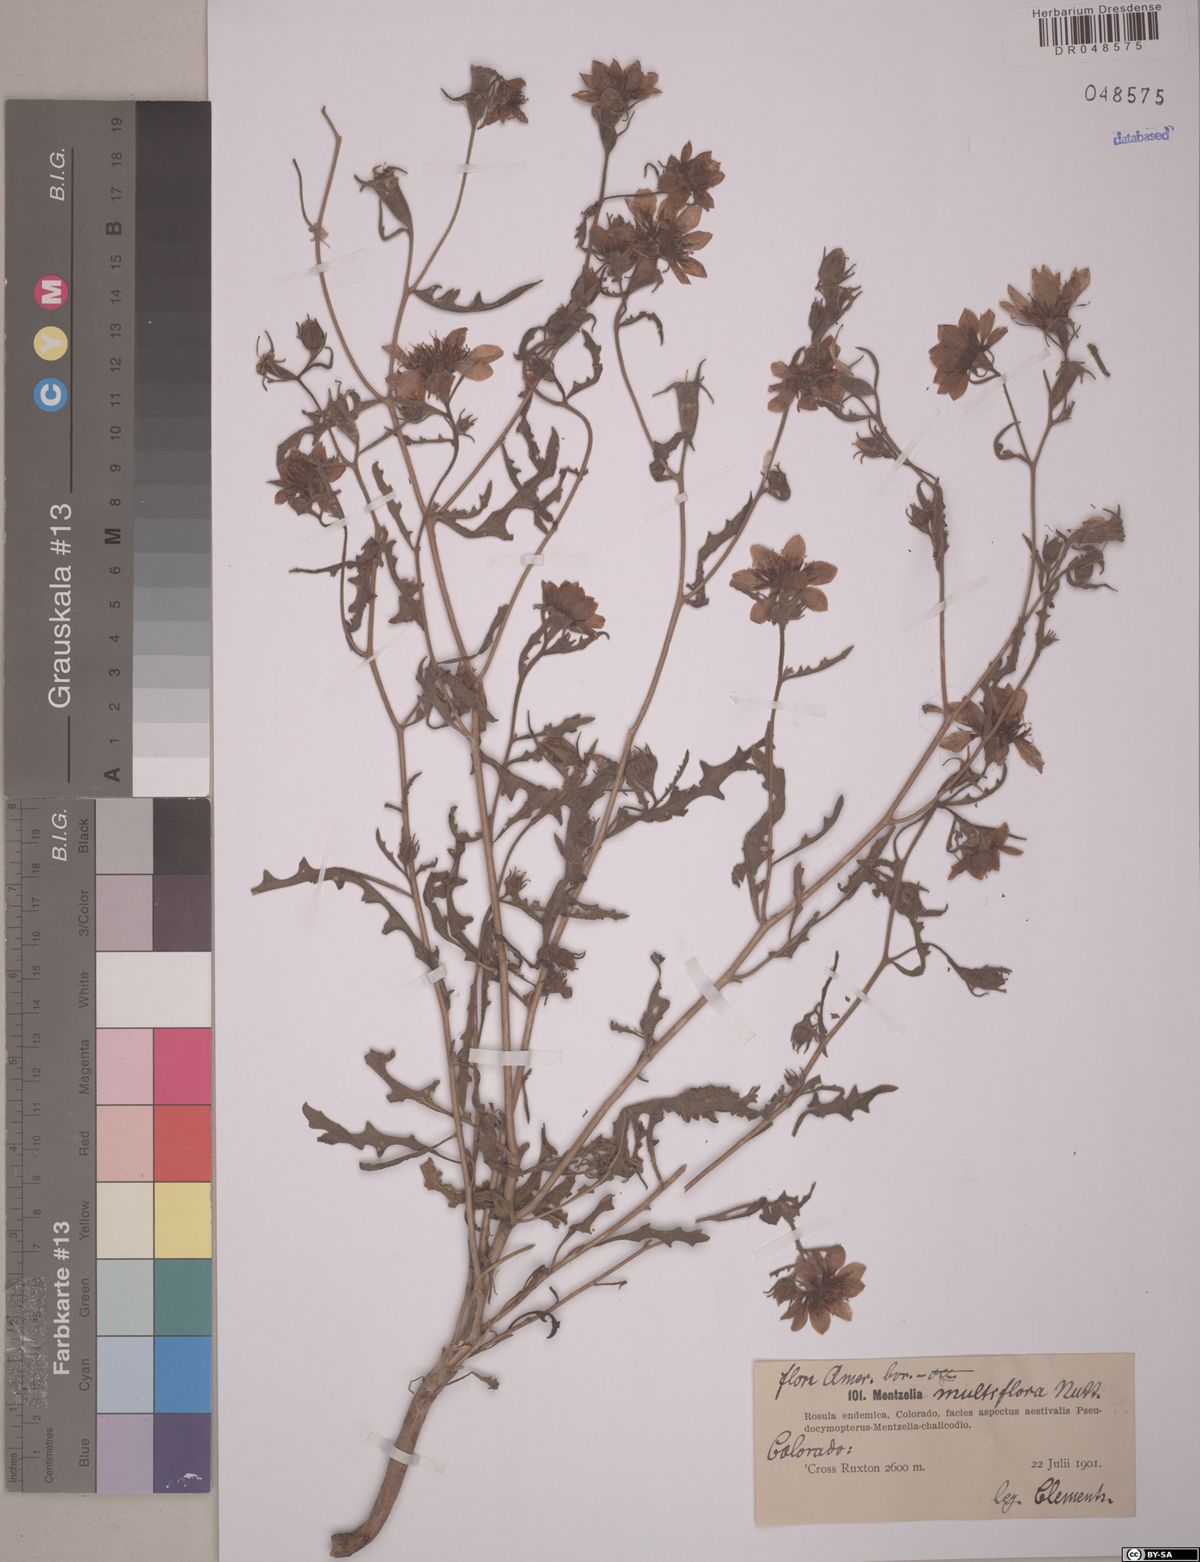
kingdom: Plantae
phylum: Tracheophyta
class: Magnoliopsida
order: Cornales
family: Loasaceae
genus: Mentzelia
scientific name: Mentzelia multiflora
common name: Adonis blazingstar
